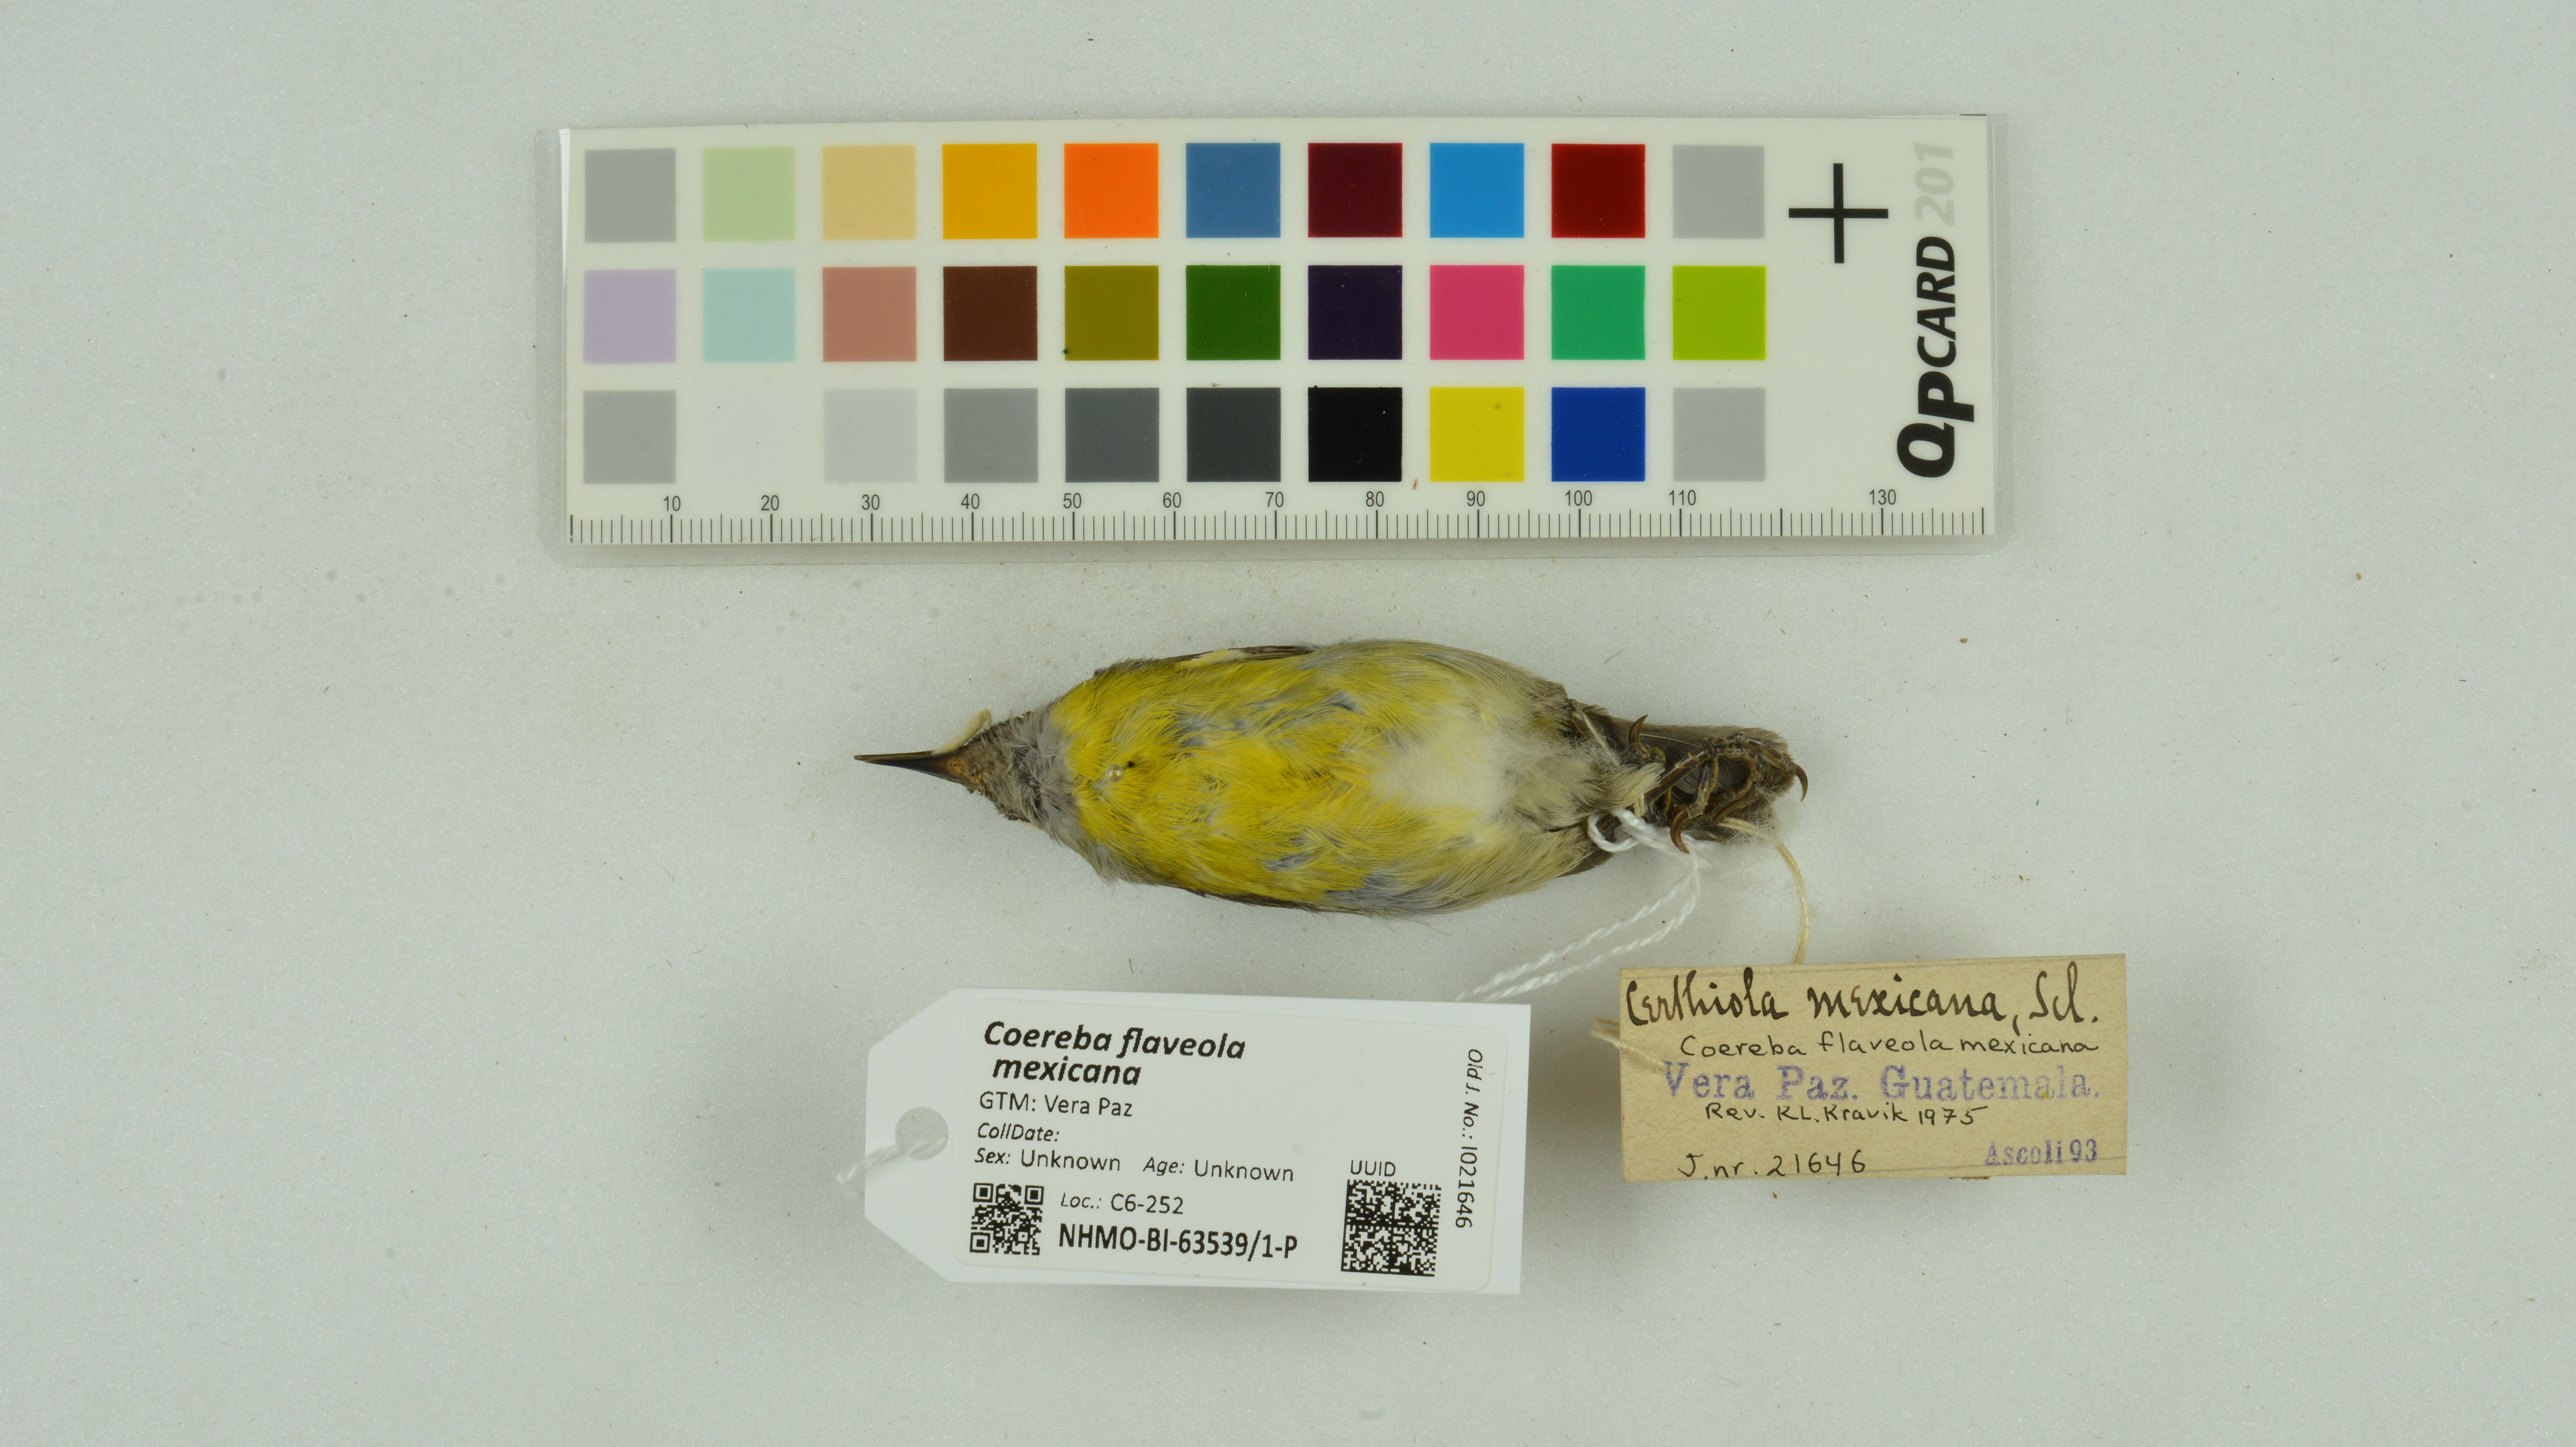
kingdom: Animalia
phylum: Chordata
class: Aves
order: Passeriformes
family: Thraupidae
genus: Coereba
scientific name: Coereba flaveola
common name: Bananaquit
